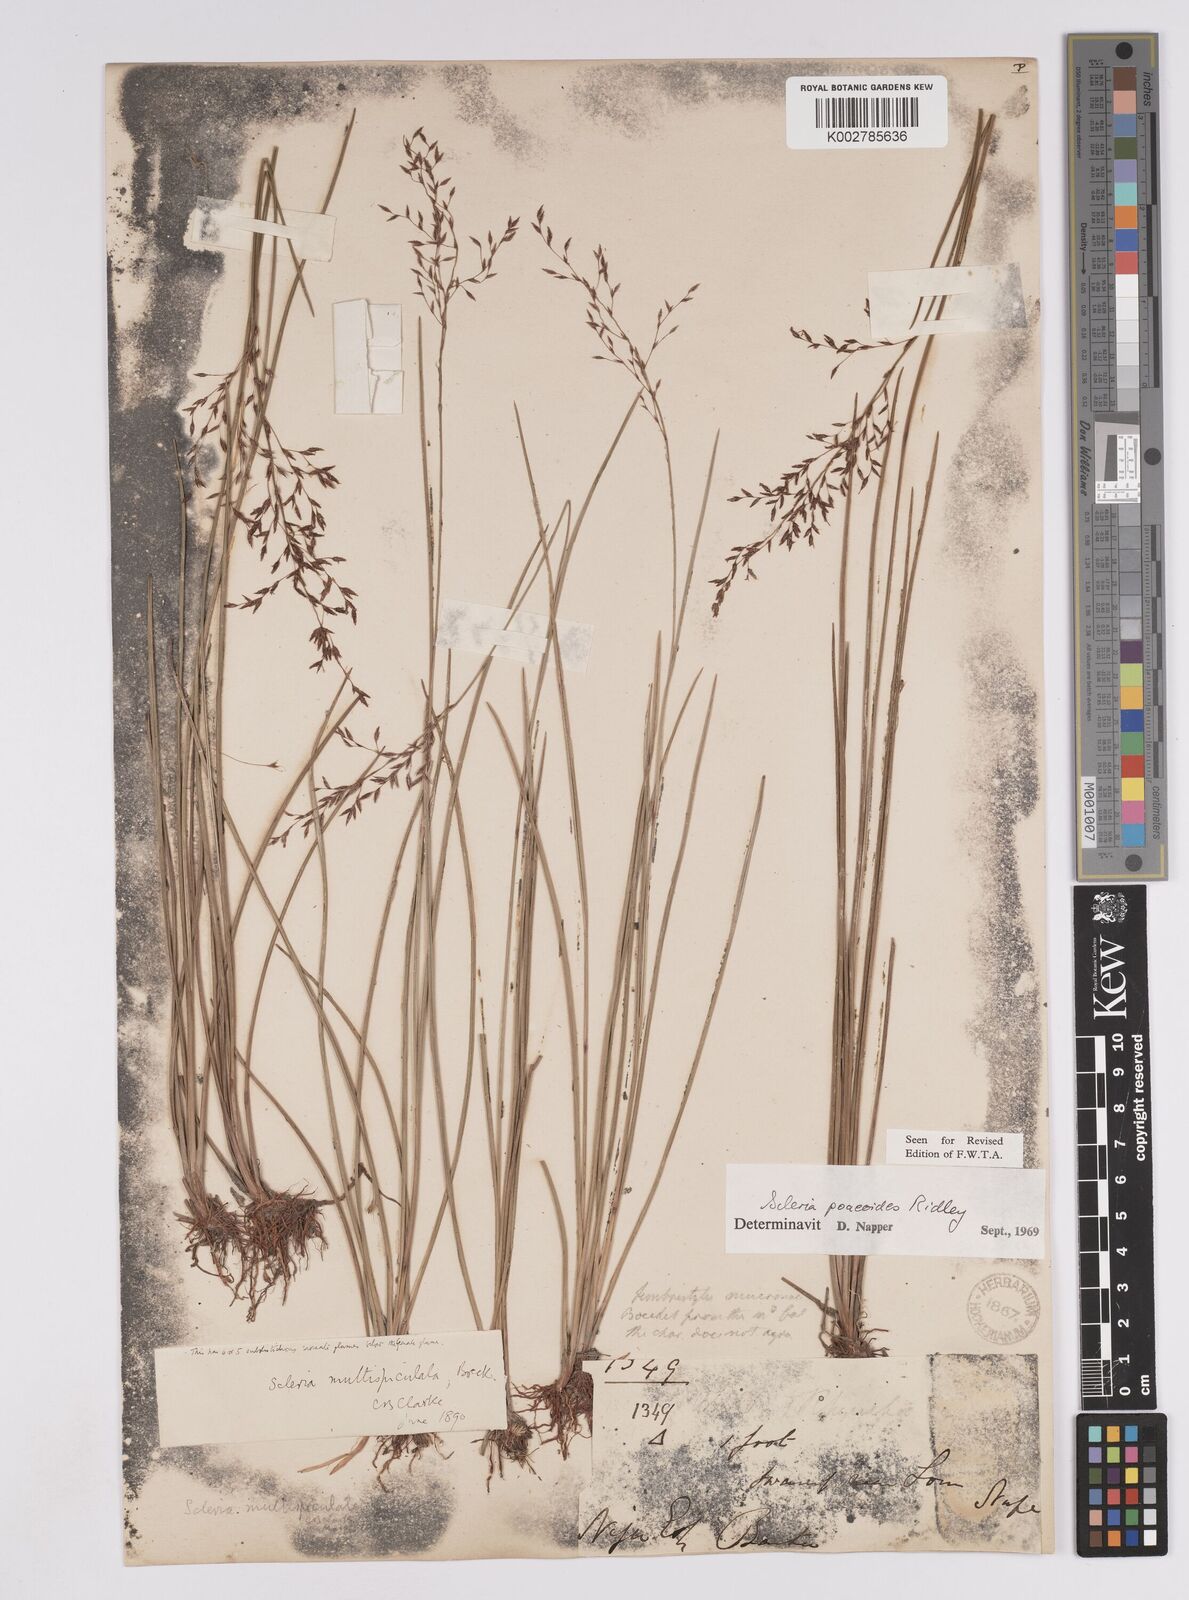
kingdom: Plantae
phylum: Tracheophyta
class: Liliopsida
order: Poales
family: Cyperaceae
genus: Scleria
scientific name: Scleria pooides
